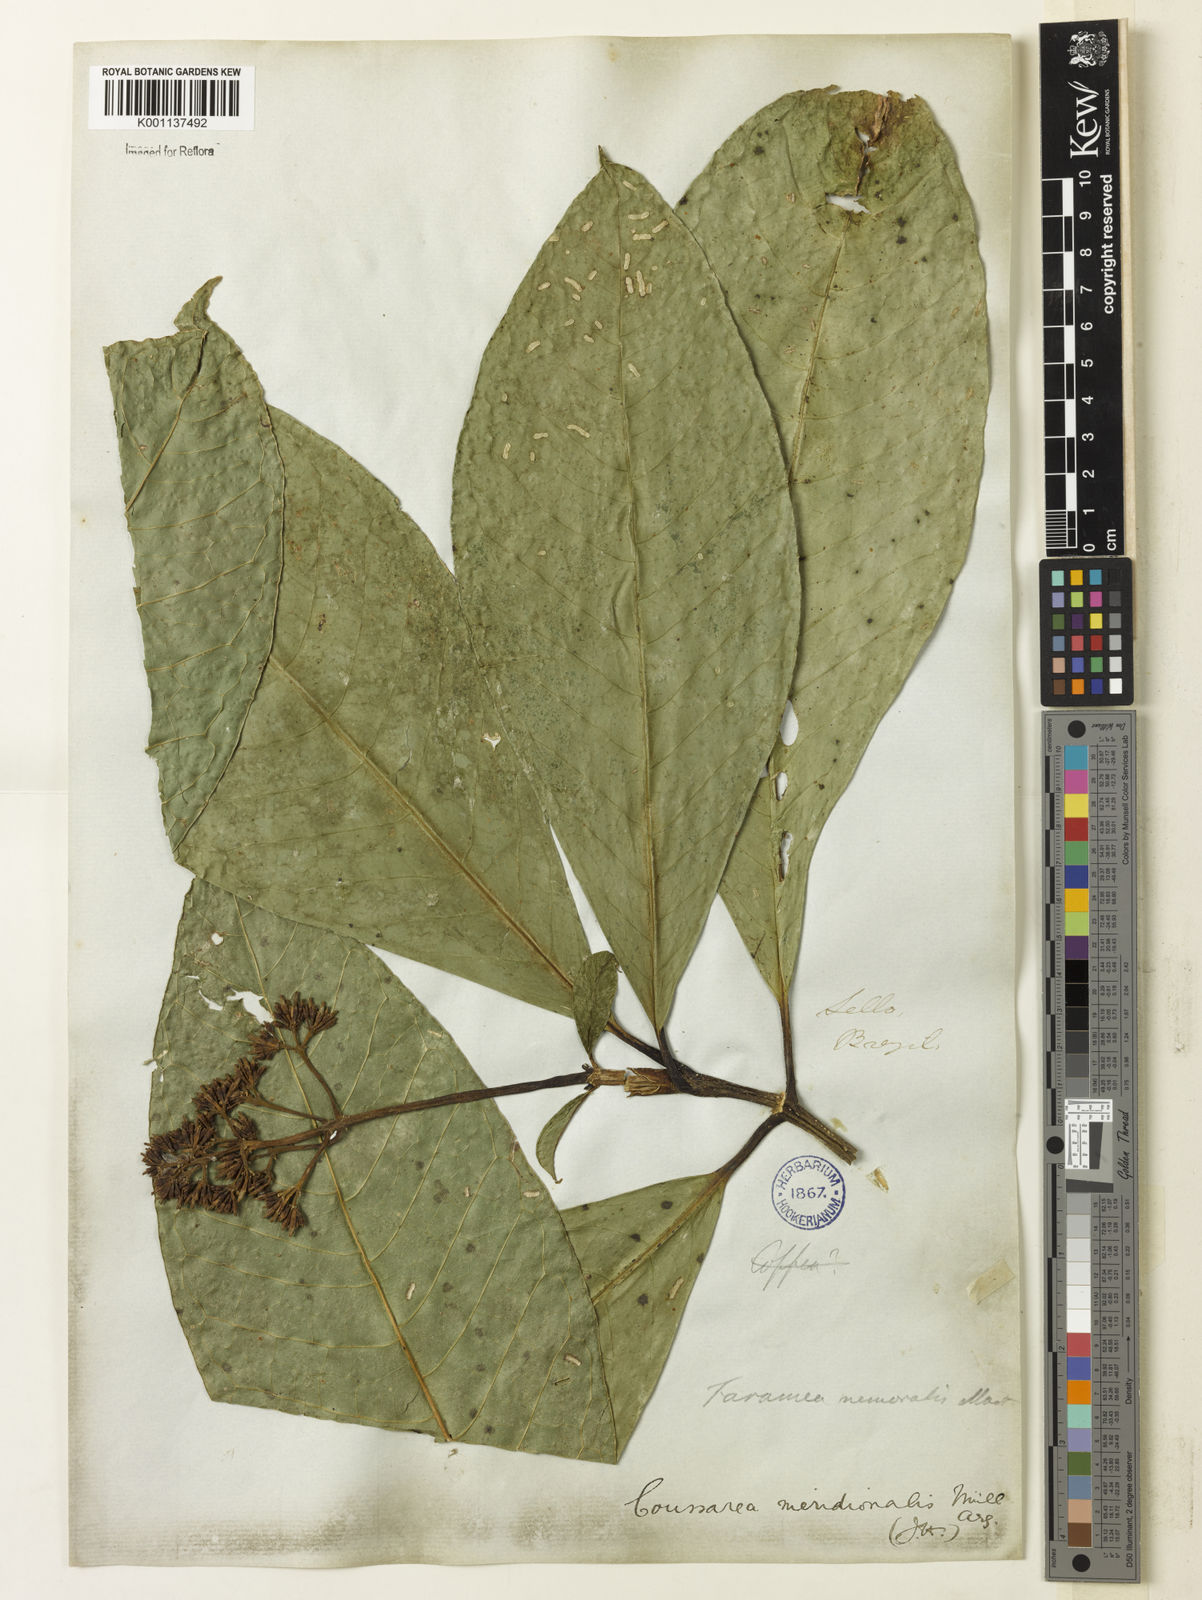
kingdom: Plantae
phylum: Tracheophyta
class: Magnoliopsida
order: Gentianales
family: Rubiaceae
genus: Coussarea
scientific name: Coussarea
